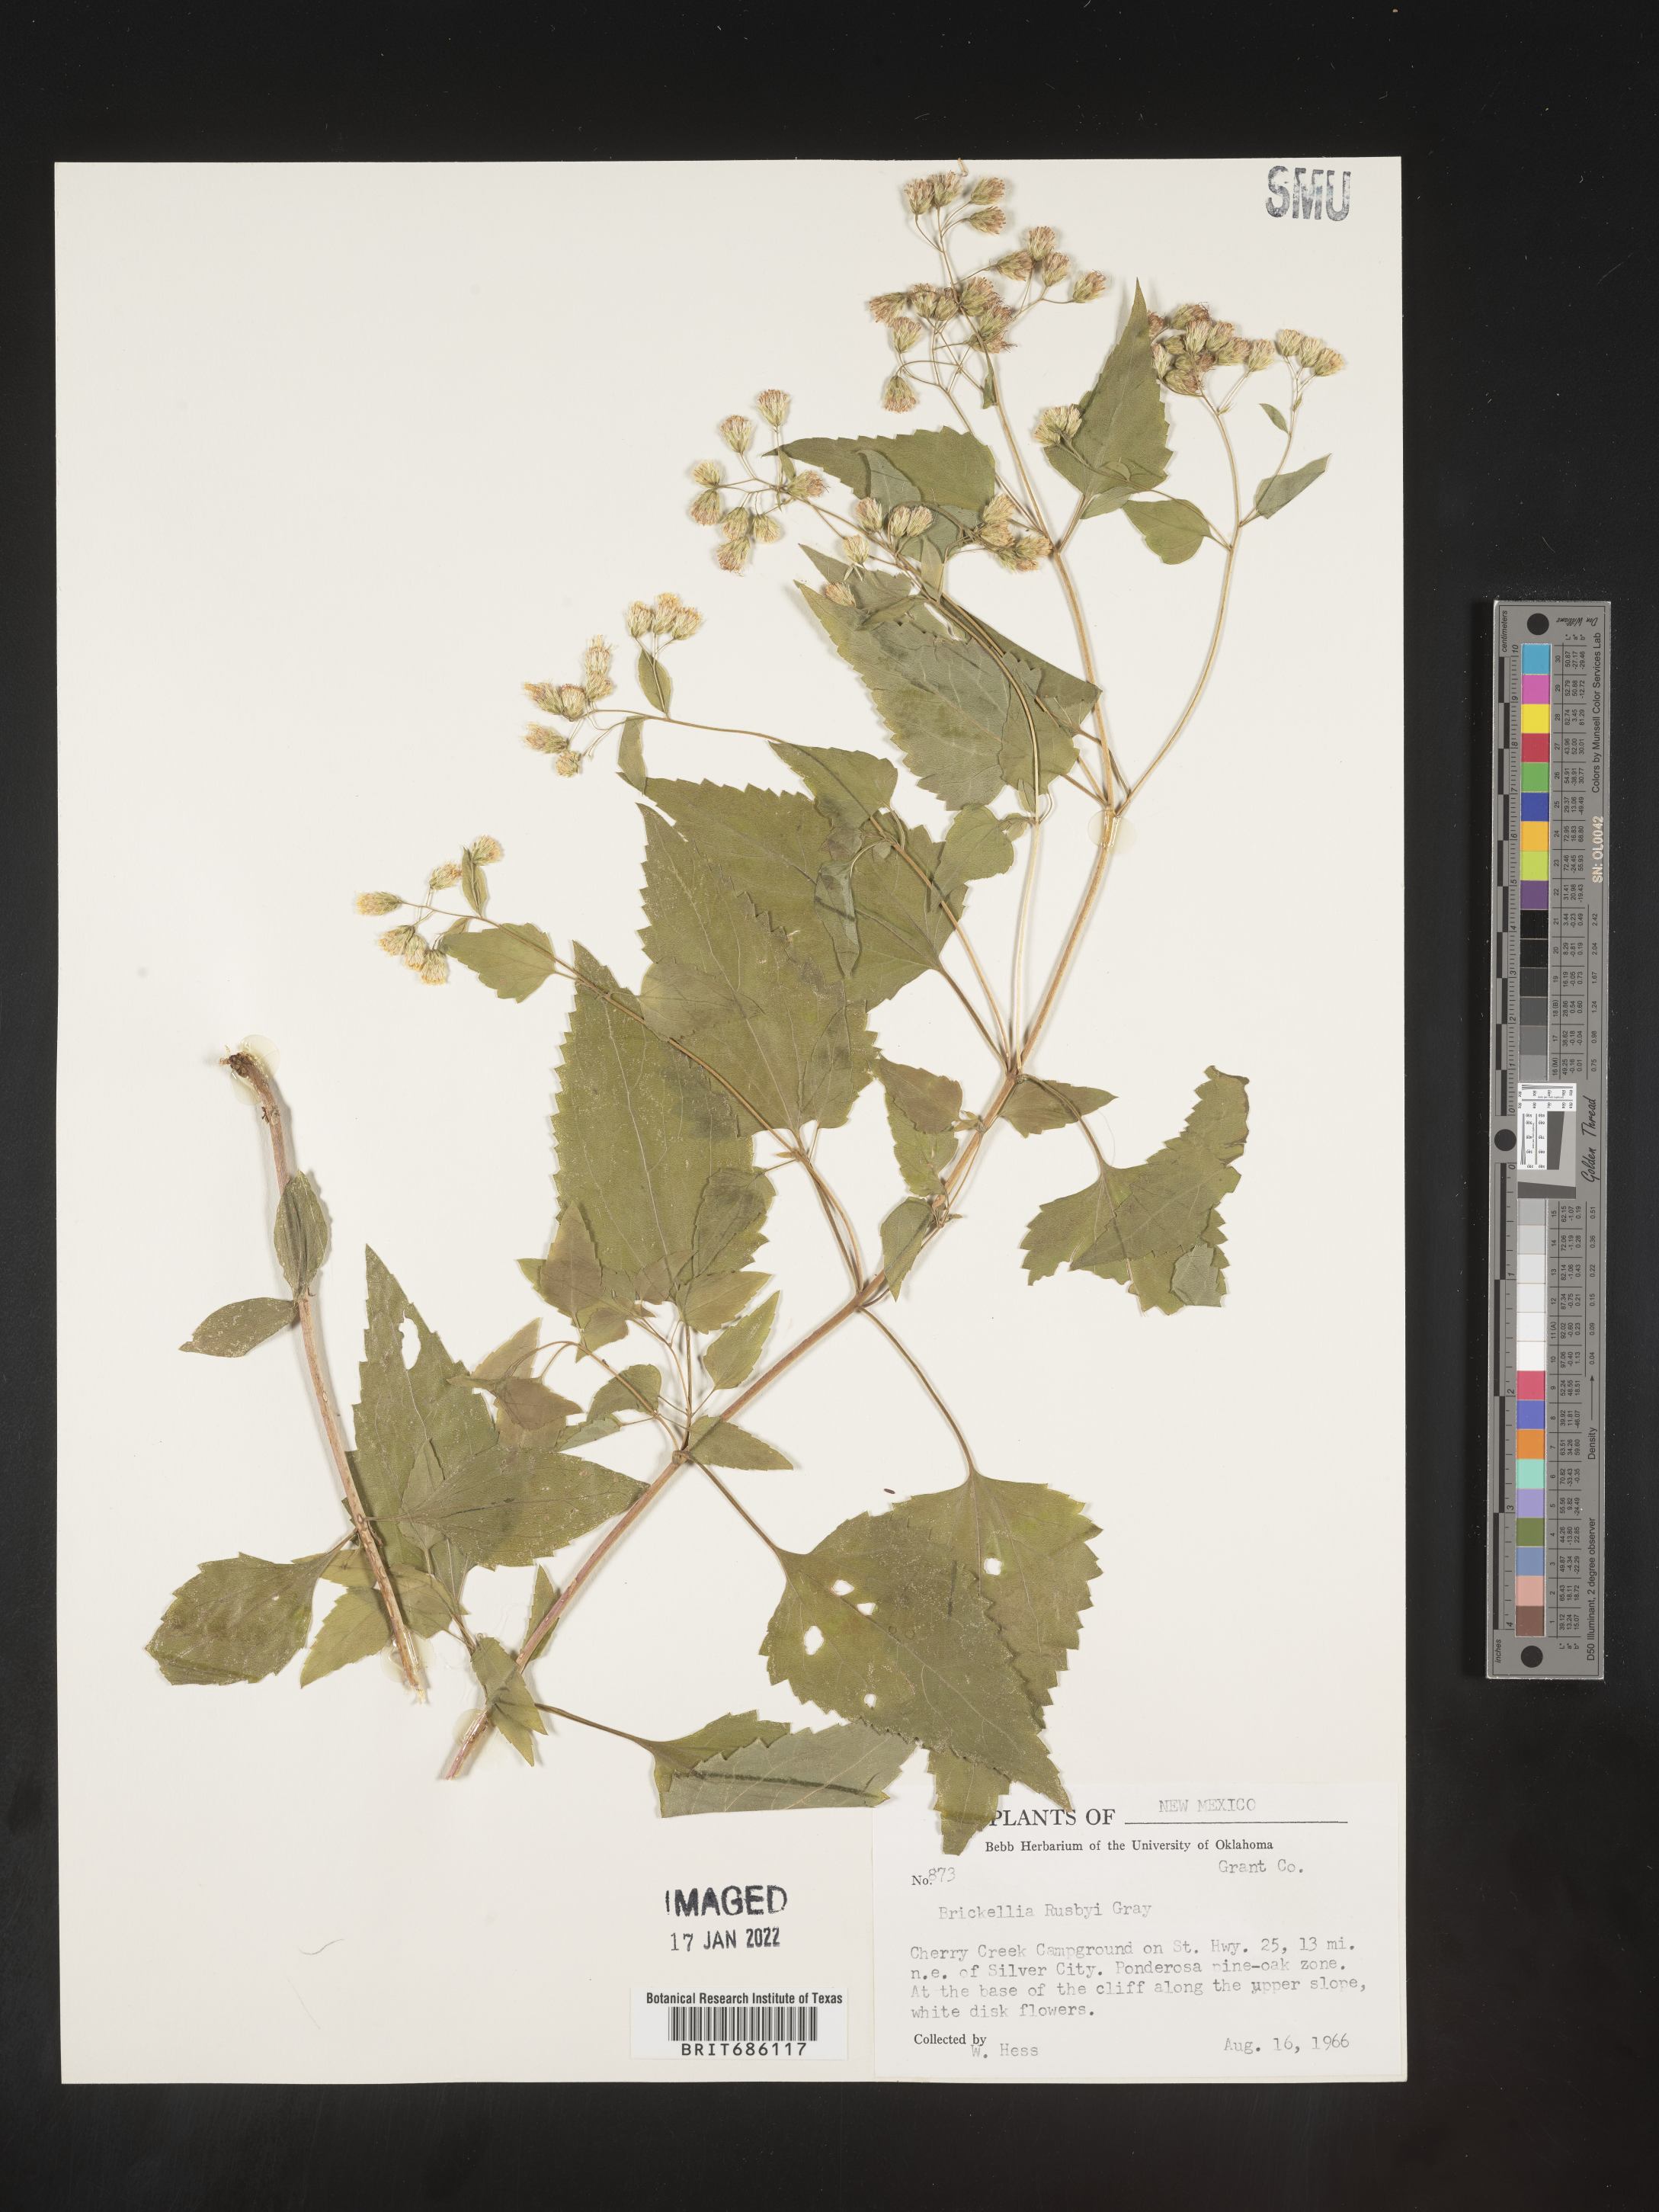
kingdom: Plantae
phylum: Tracheophyta
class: Magnoliopsida
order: Asterales
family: Asteraceae
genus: Brickellia
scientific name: Brickellia rusbyi
